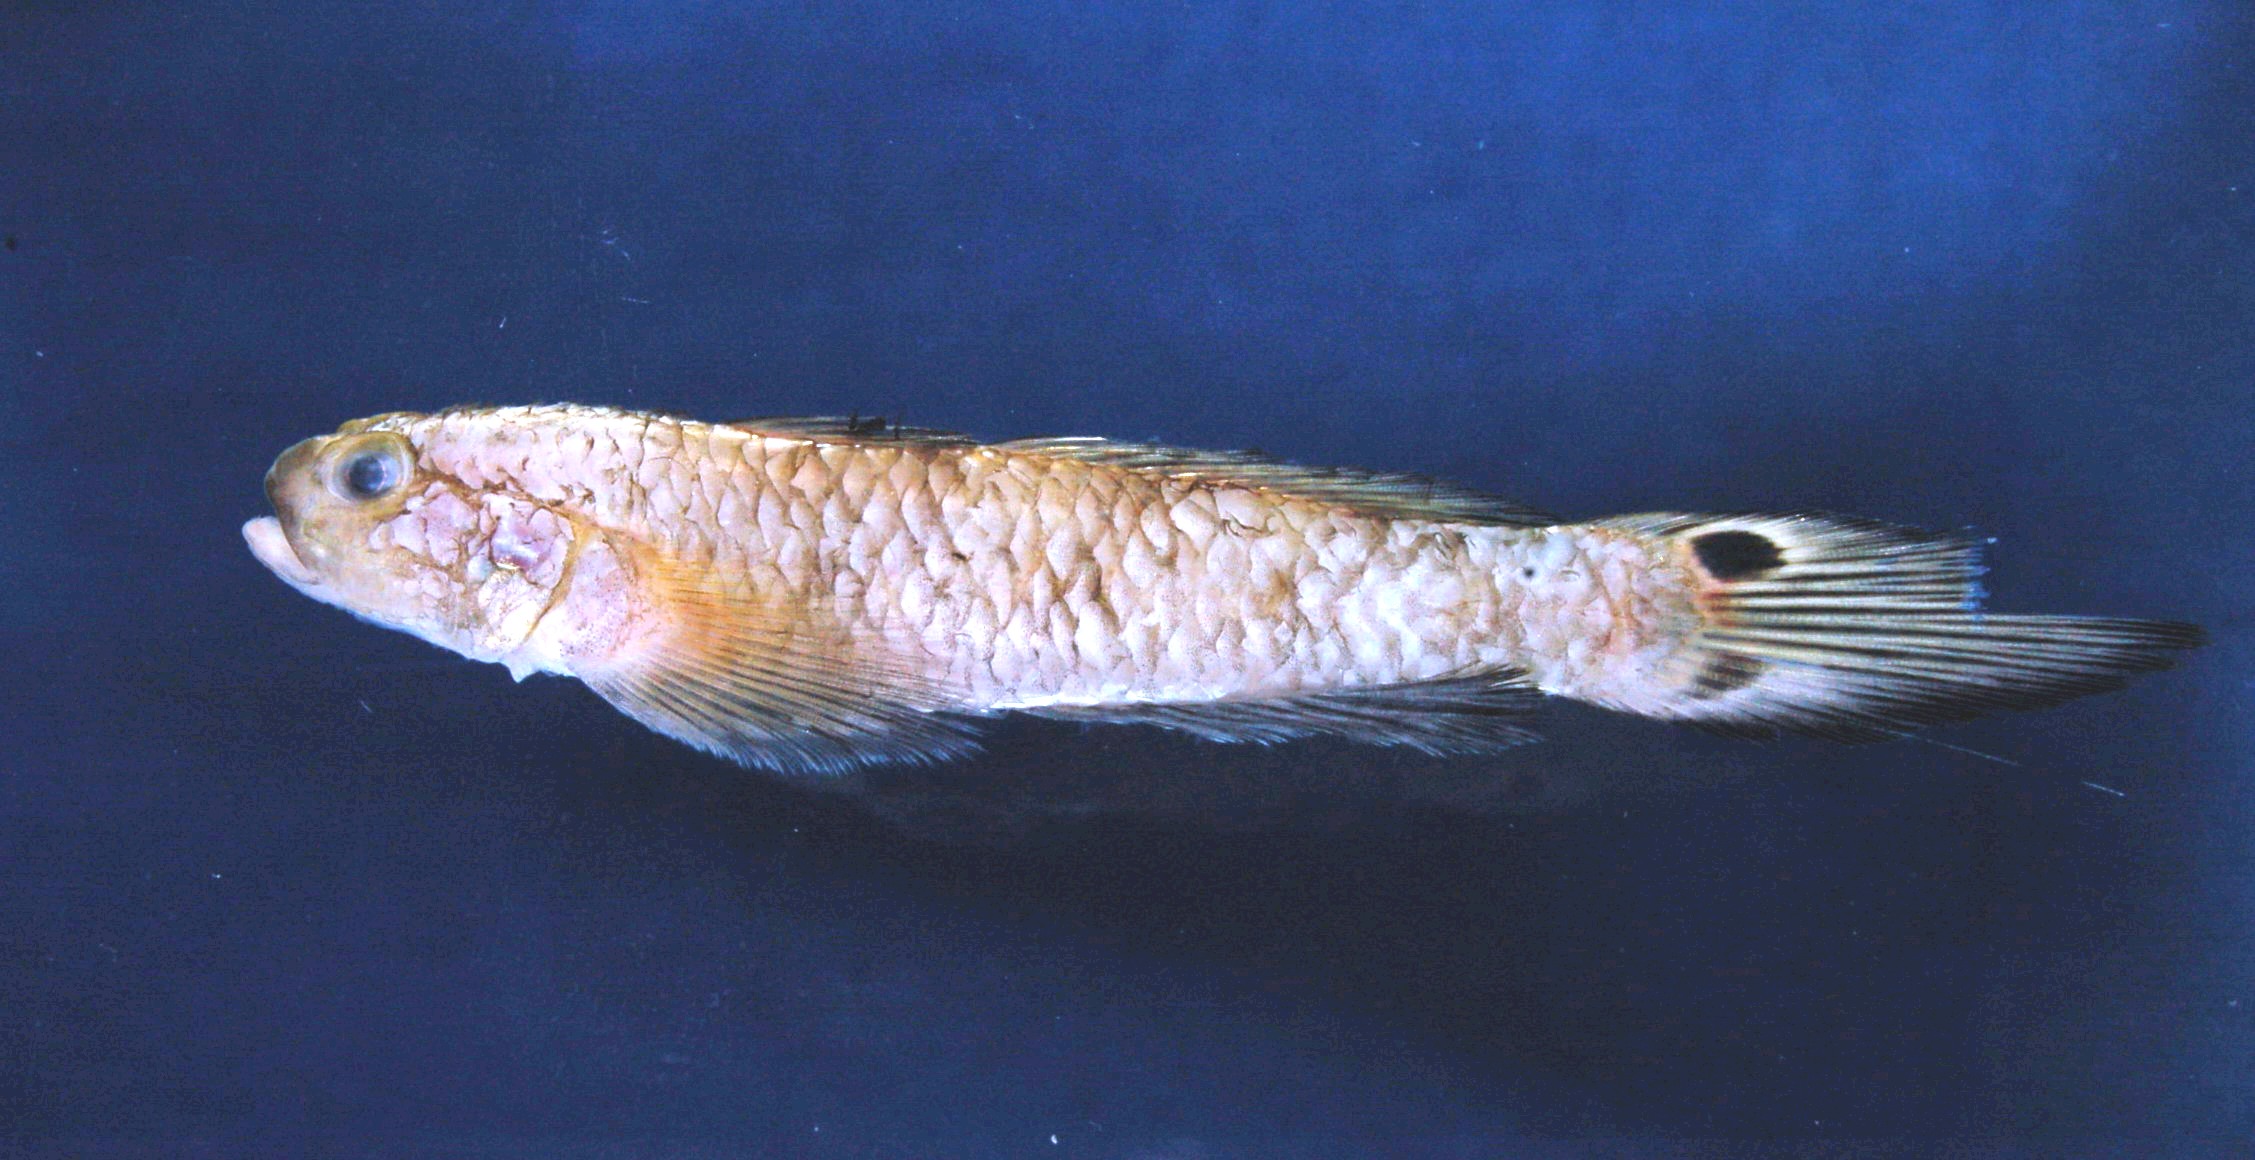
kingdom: Animalia
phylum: Chordata
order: Perciformes
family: Gobiidae
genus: Parachaeturichthys
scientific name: Parachaeturichthys polynema
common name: Taileyed goby
